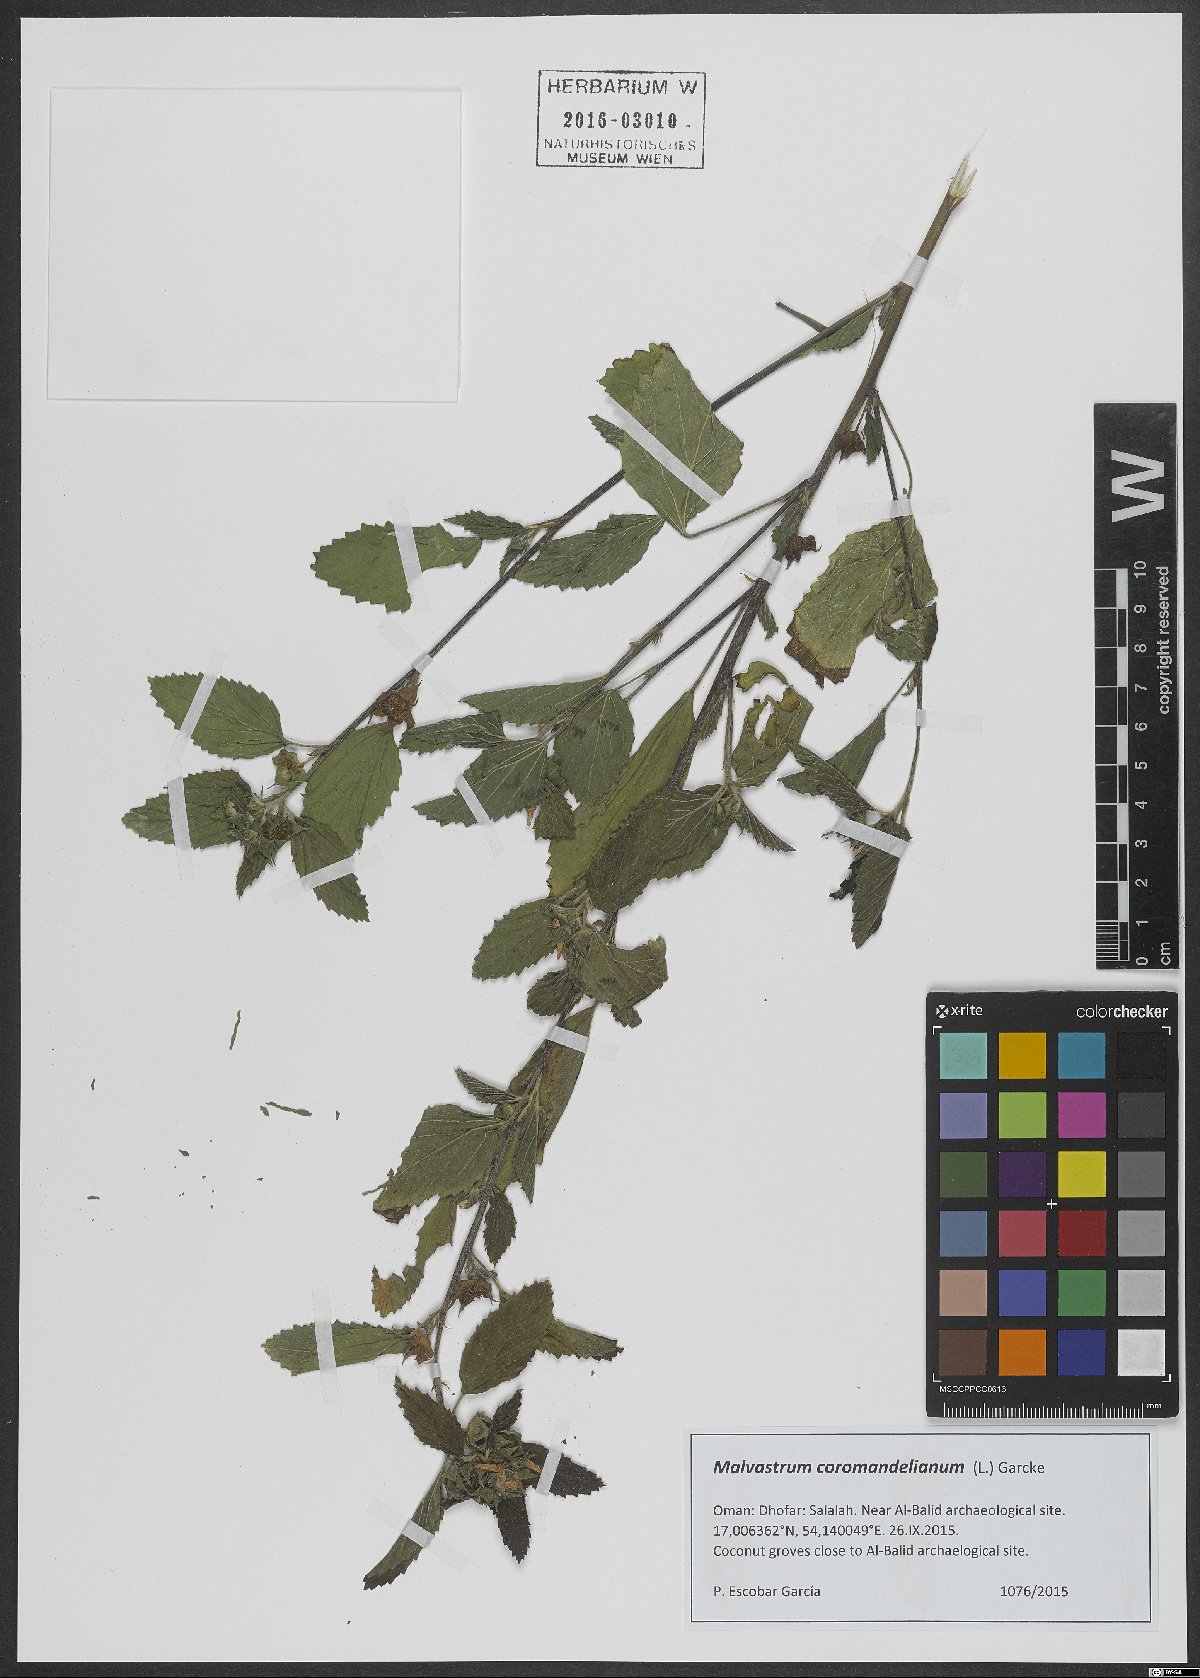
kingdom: Plantae
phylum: Tracheophyta
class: Magnoliopsida
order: Malvales
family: Malvaceae
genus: Malvastrum
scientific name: Malvastrum coromandelianum
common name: Threelobe false mallow
